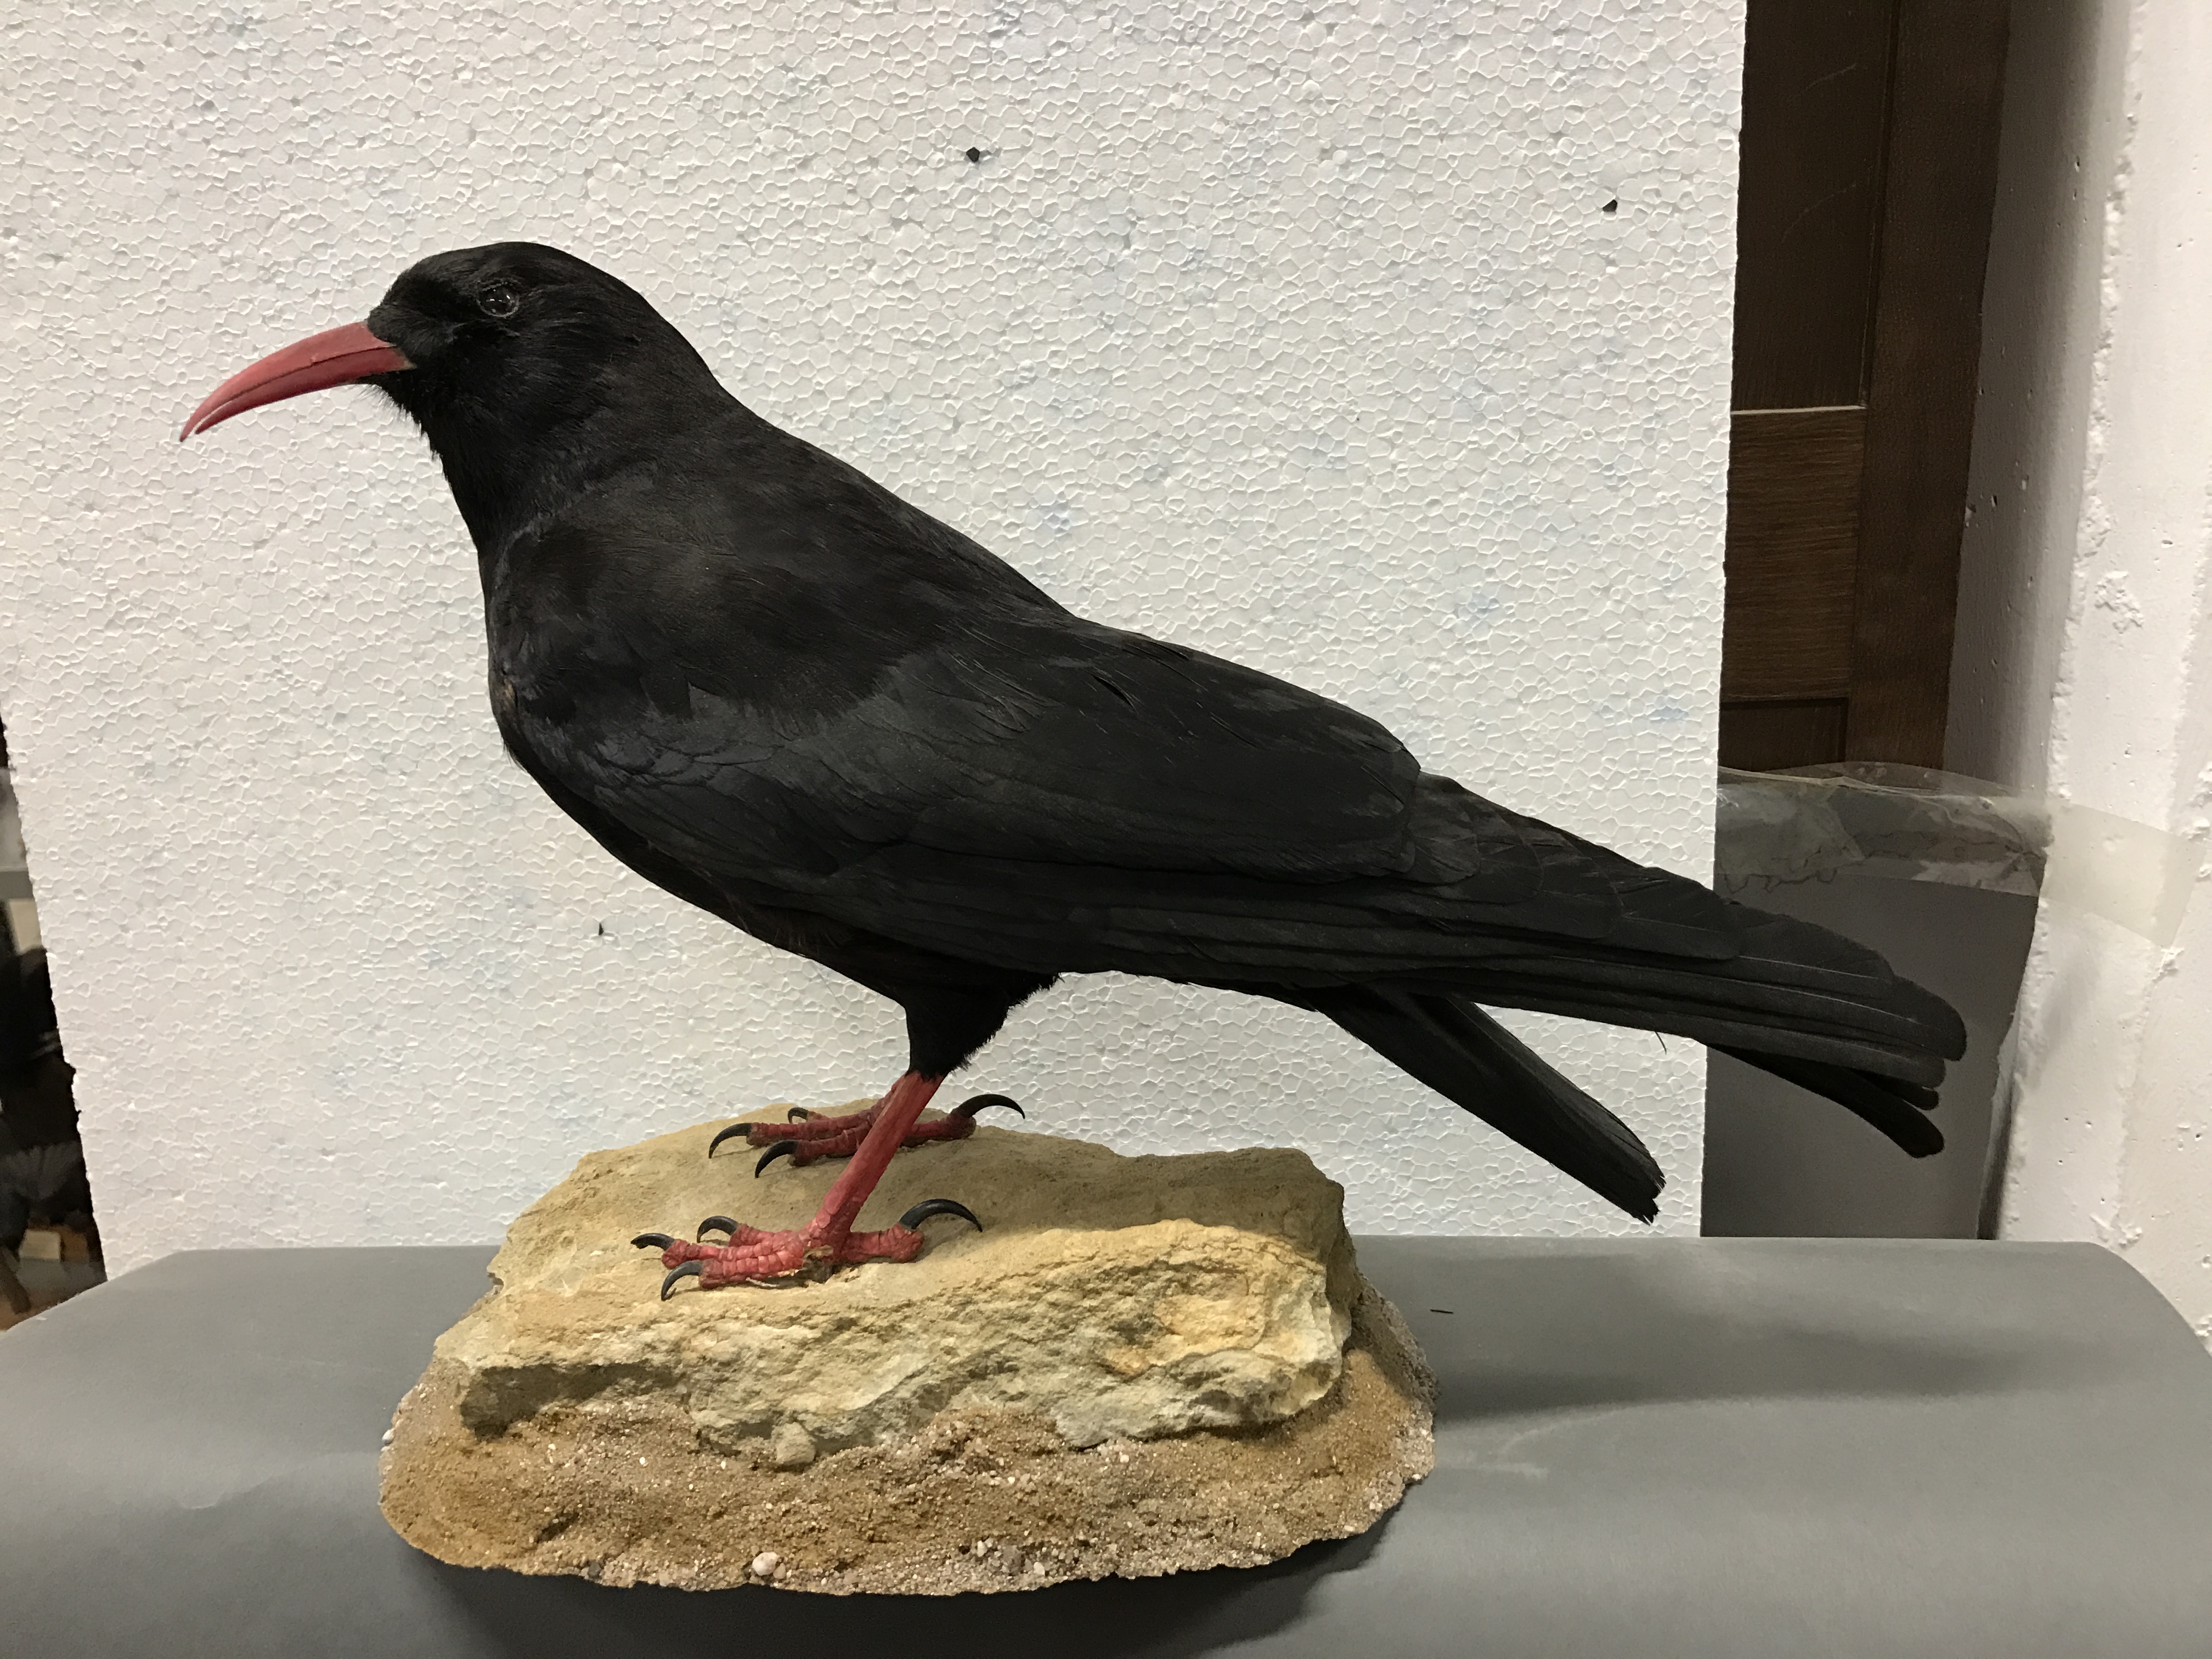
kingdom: Animalia
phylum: Chordata
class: Aves
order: Passeriformes
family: Corvidae
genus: Pyrrhocorax
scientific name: Pyrrhocorax pyrrhocorax
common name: Red-billed chough
